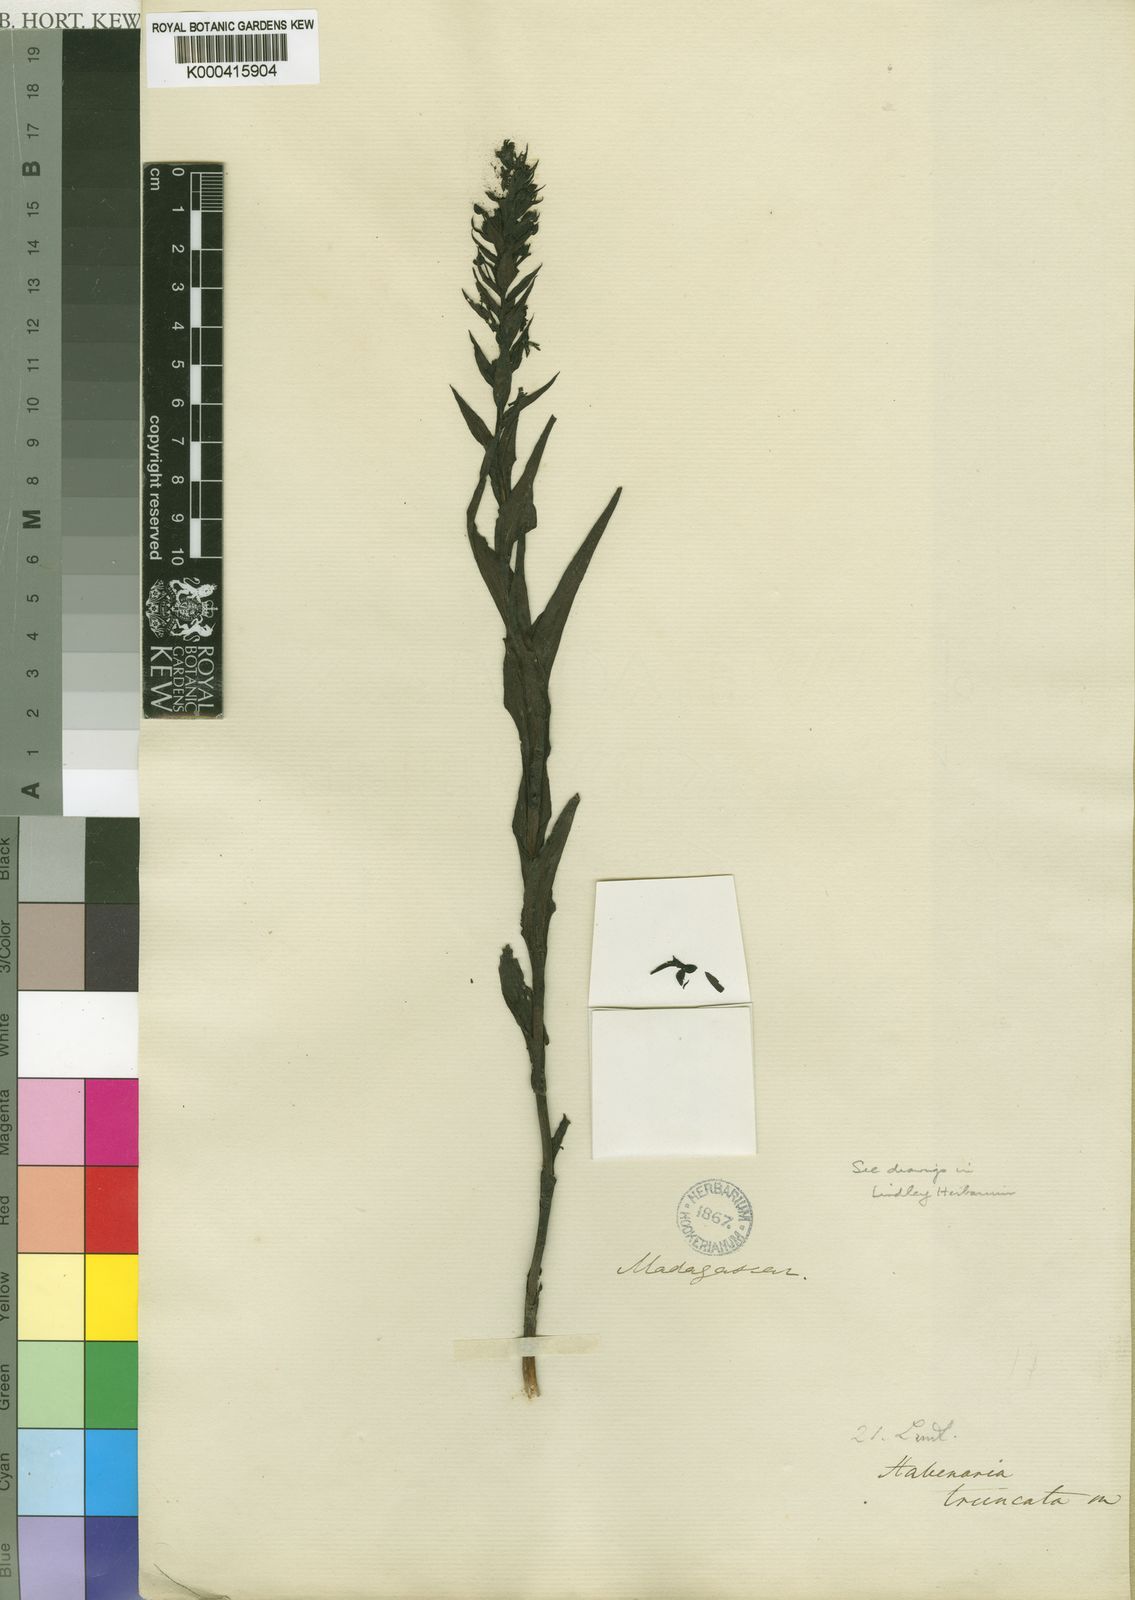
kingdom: Plantae
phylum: Tracheophyta
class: Liliopsida
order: Asparagales
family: Orchidaceae
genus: Habenaria
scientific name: Habenaria truncata
